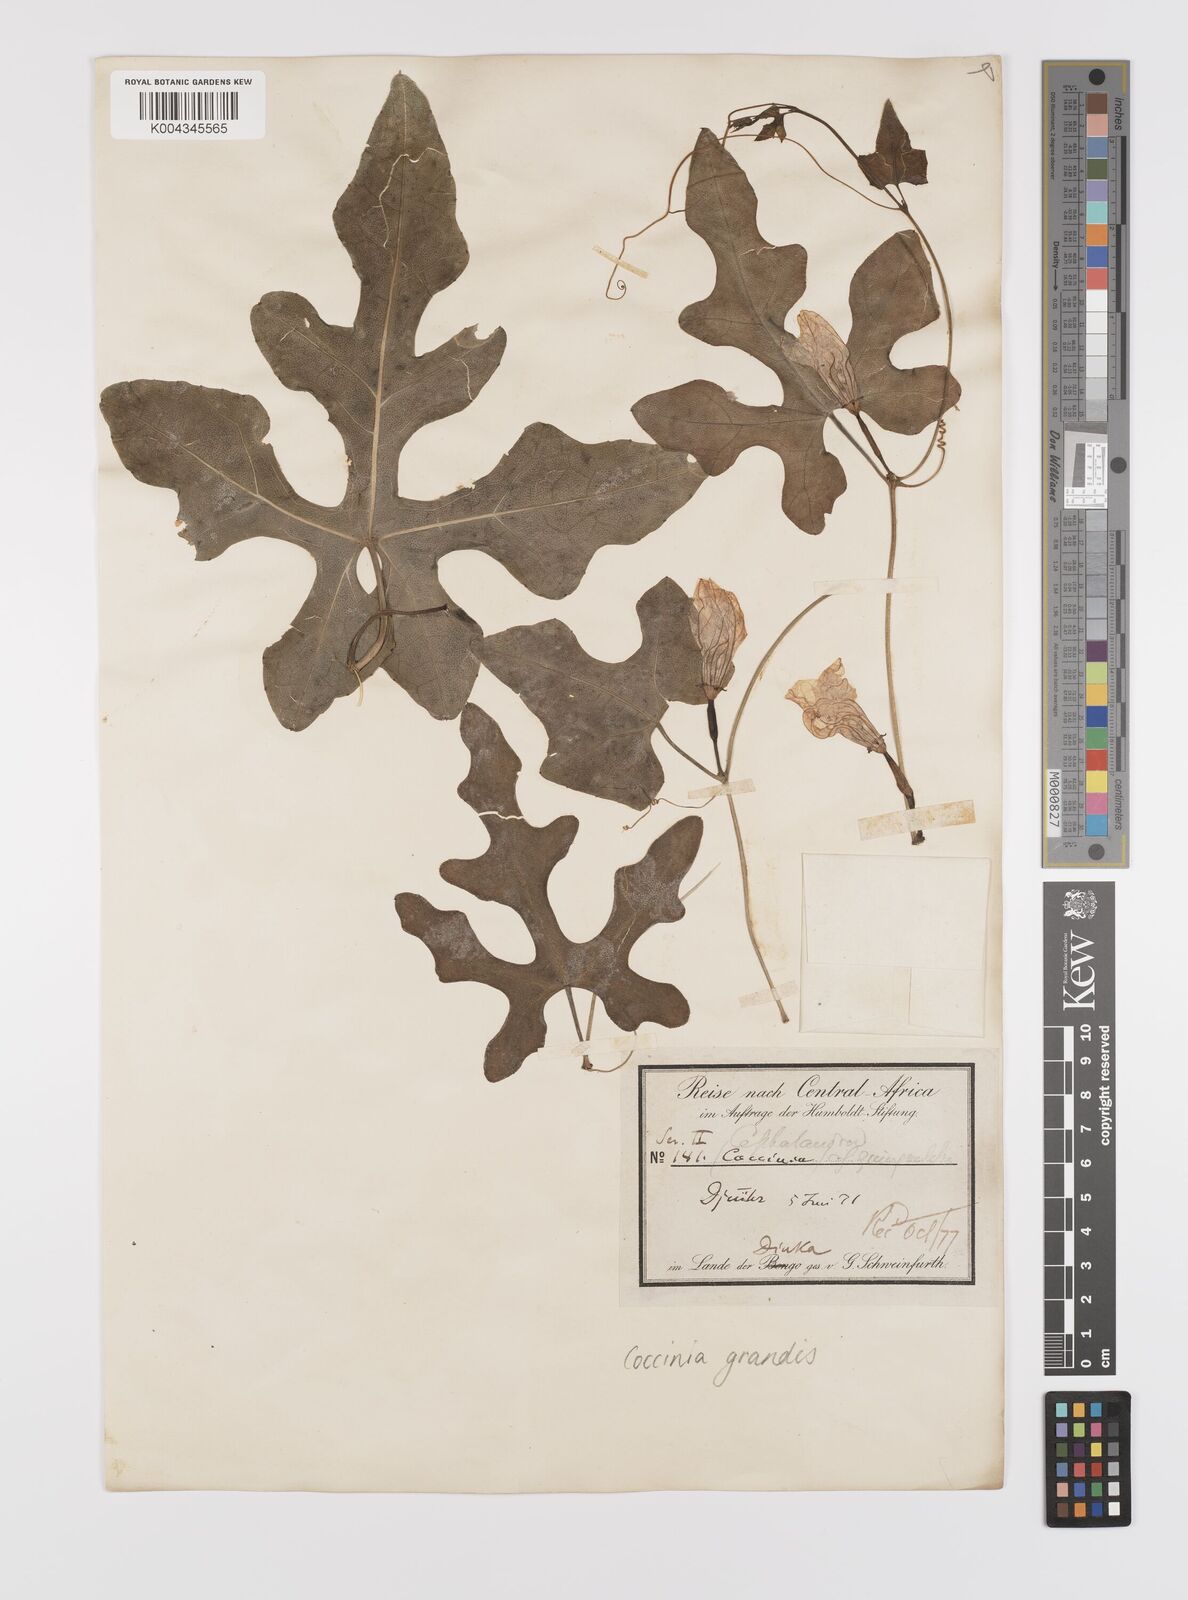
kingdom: Plantae
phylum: Tracheophyta
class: Magnoliopsida
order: Cucurbitales
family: Cucurbitaceae
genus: Coccinia
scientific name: Coccinia grandis
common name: Ivy gourd
